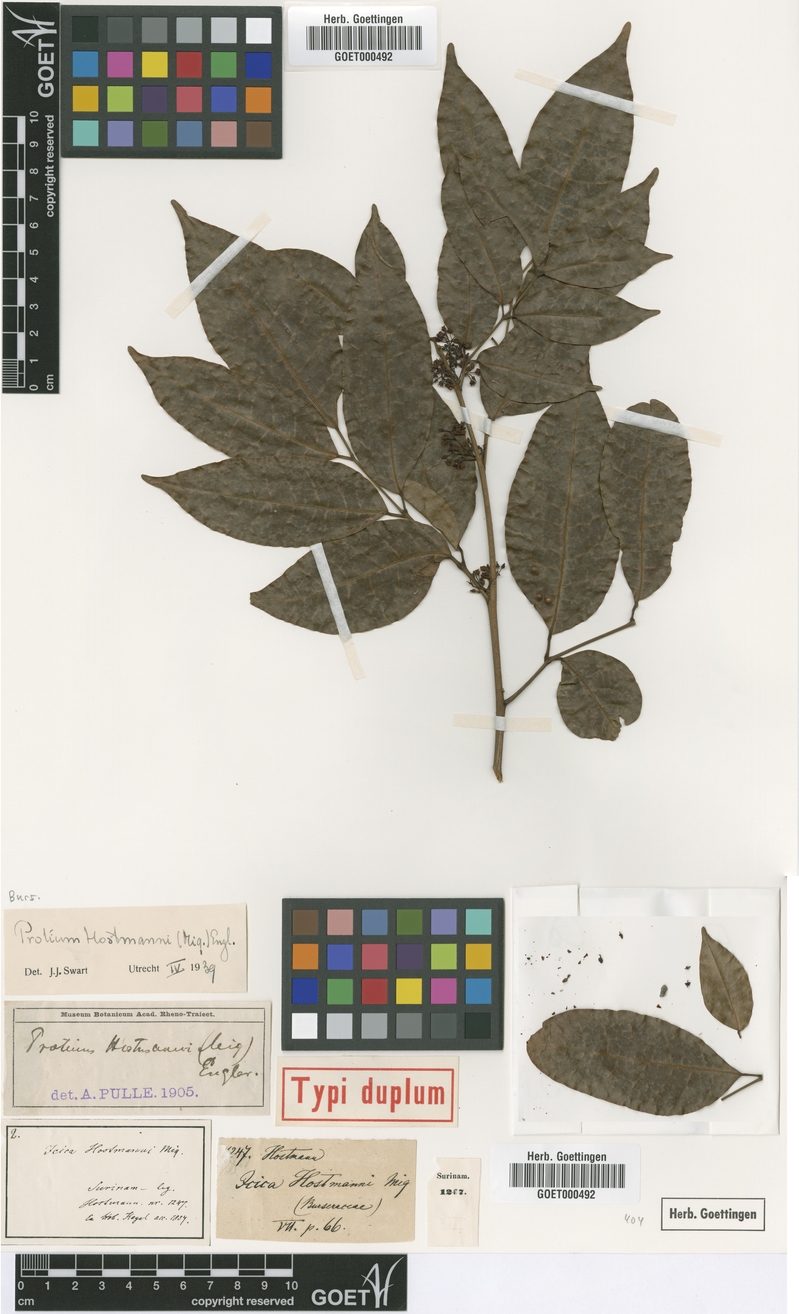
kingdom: Plantae
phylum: Tracheophyta
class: Magnoliopsida
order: Sapindales
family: Burseraceae
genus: Protium
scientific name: Protium guianense
